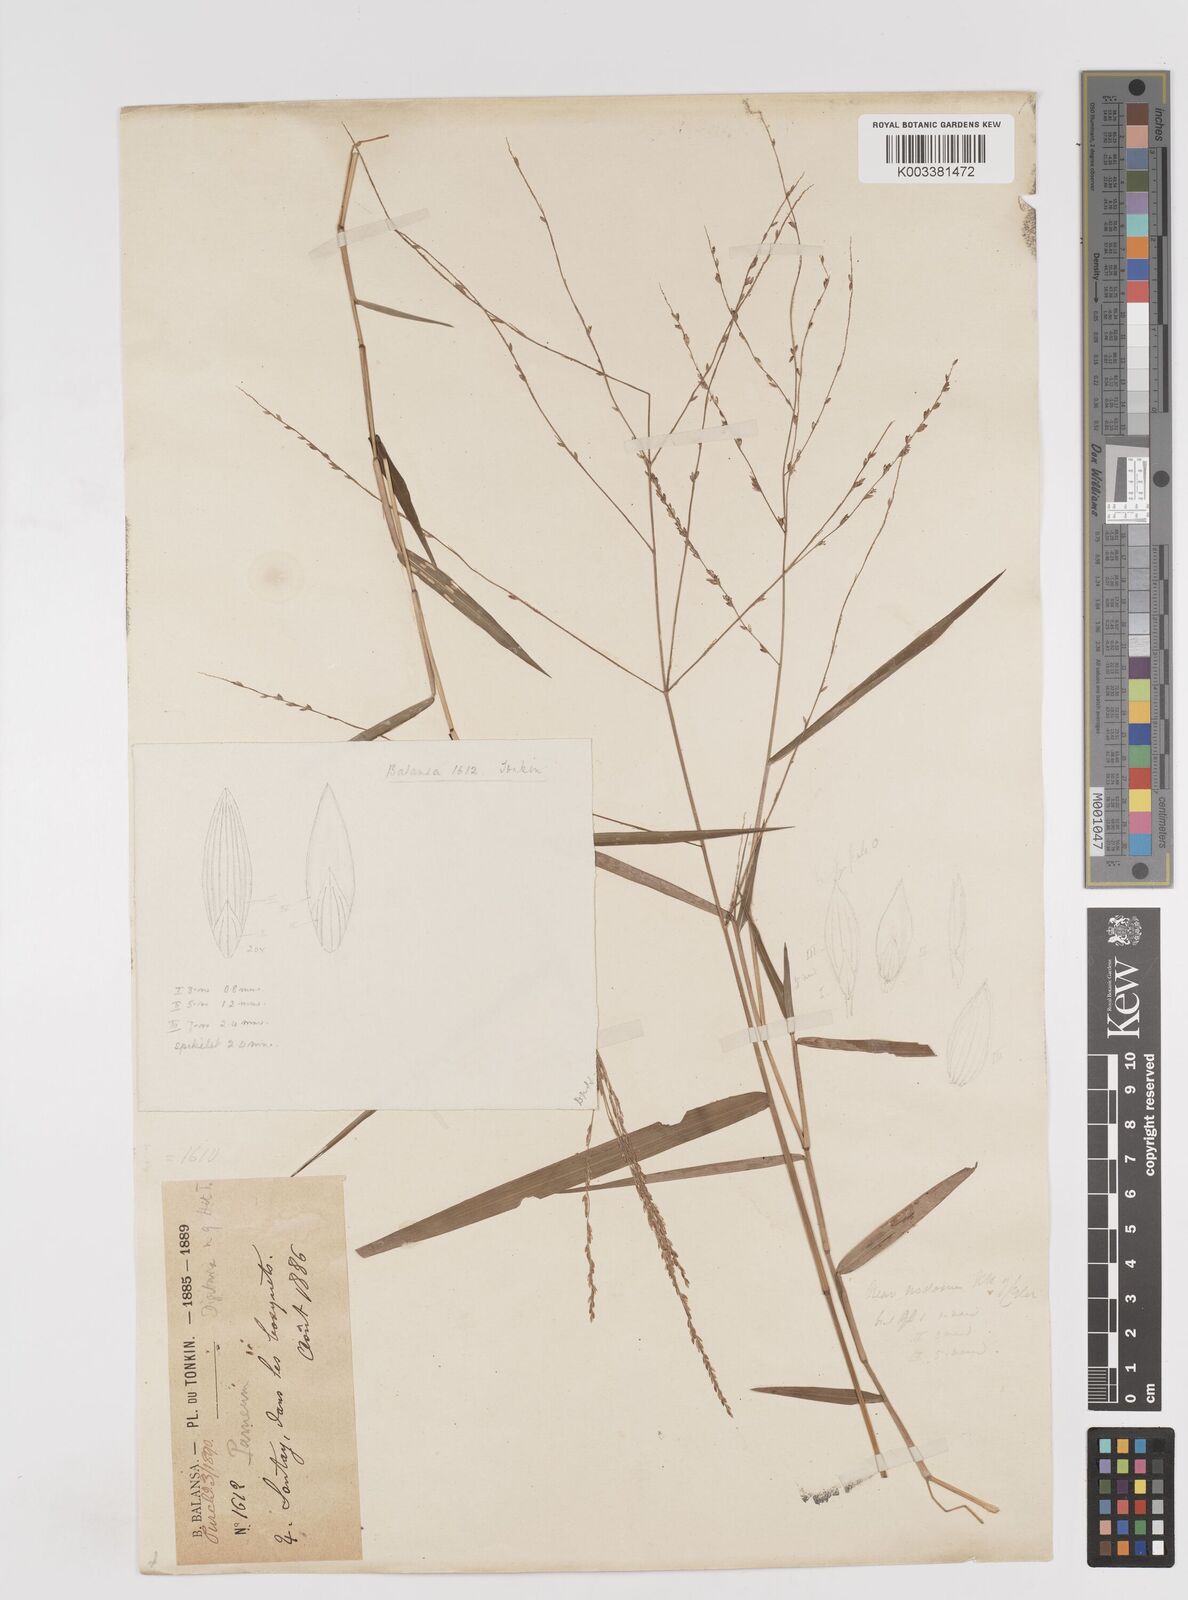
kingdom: Plantae
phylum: Tracheophyta
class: Liliopsida
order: Poales
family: Poaceae
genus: Ottochloa
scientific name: Ottochloa nodosa
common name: Slender-panic grass
